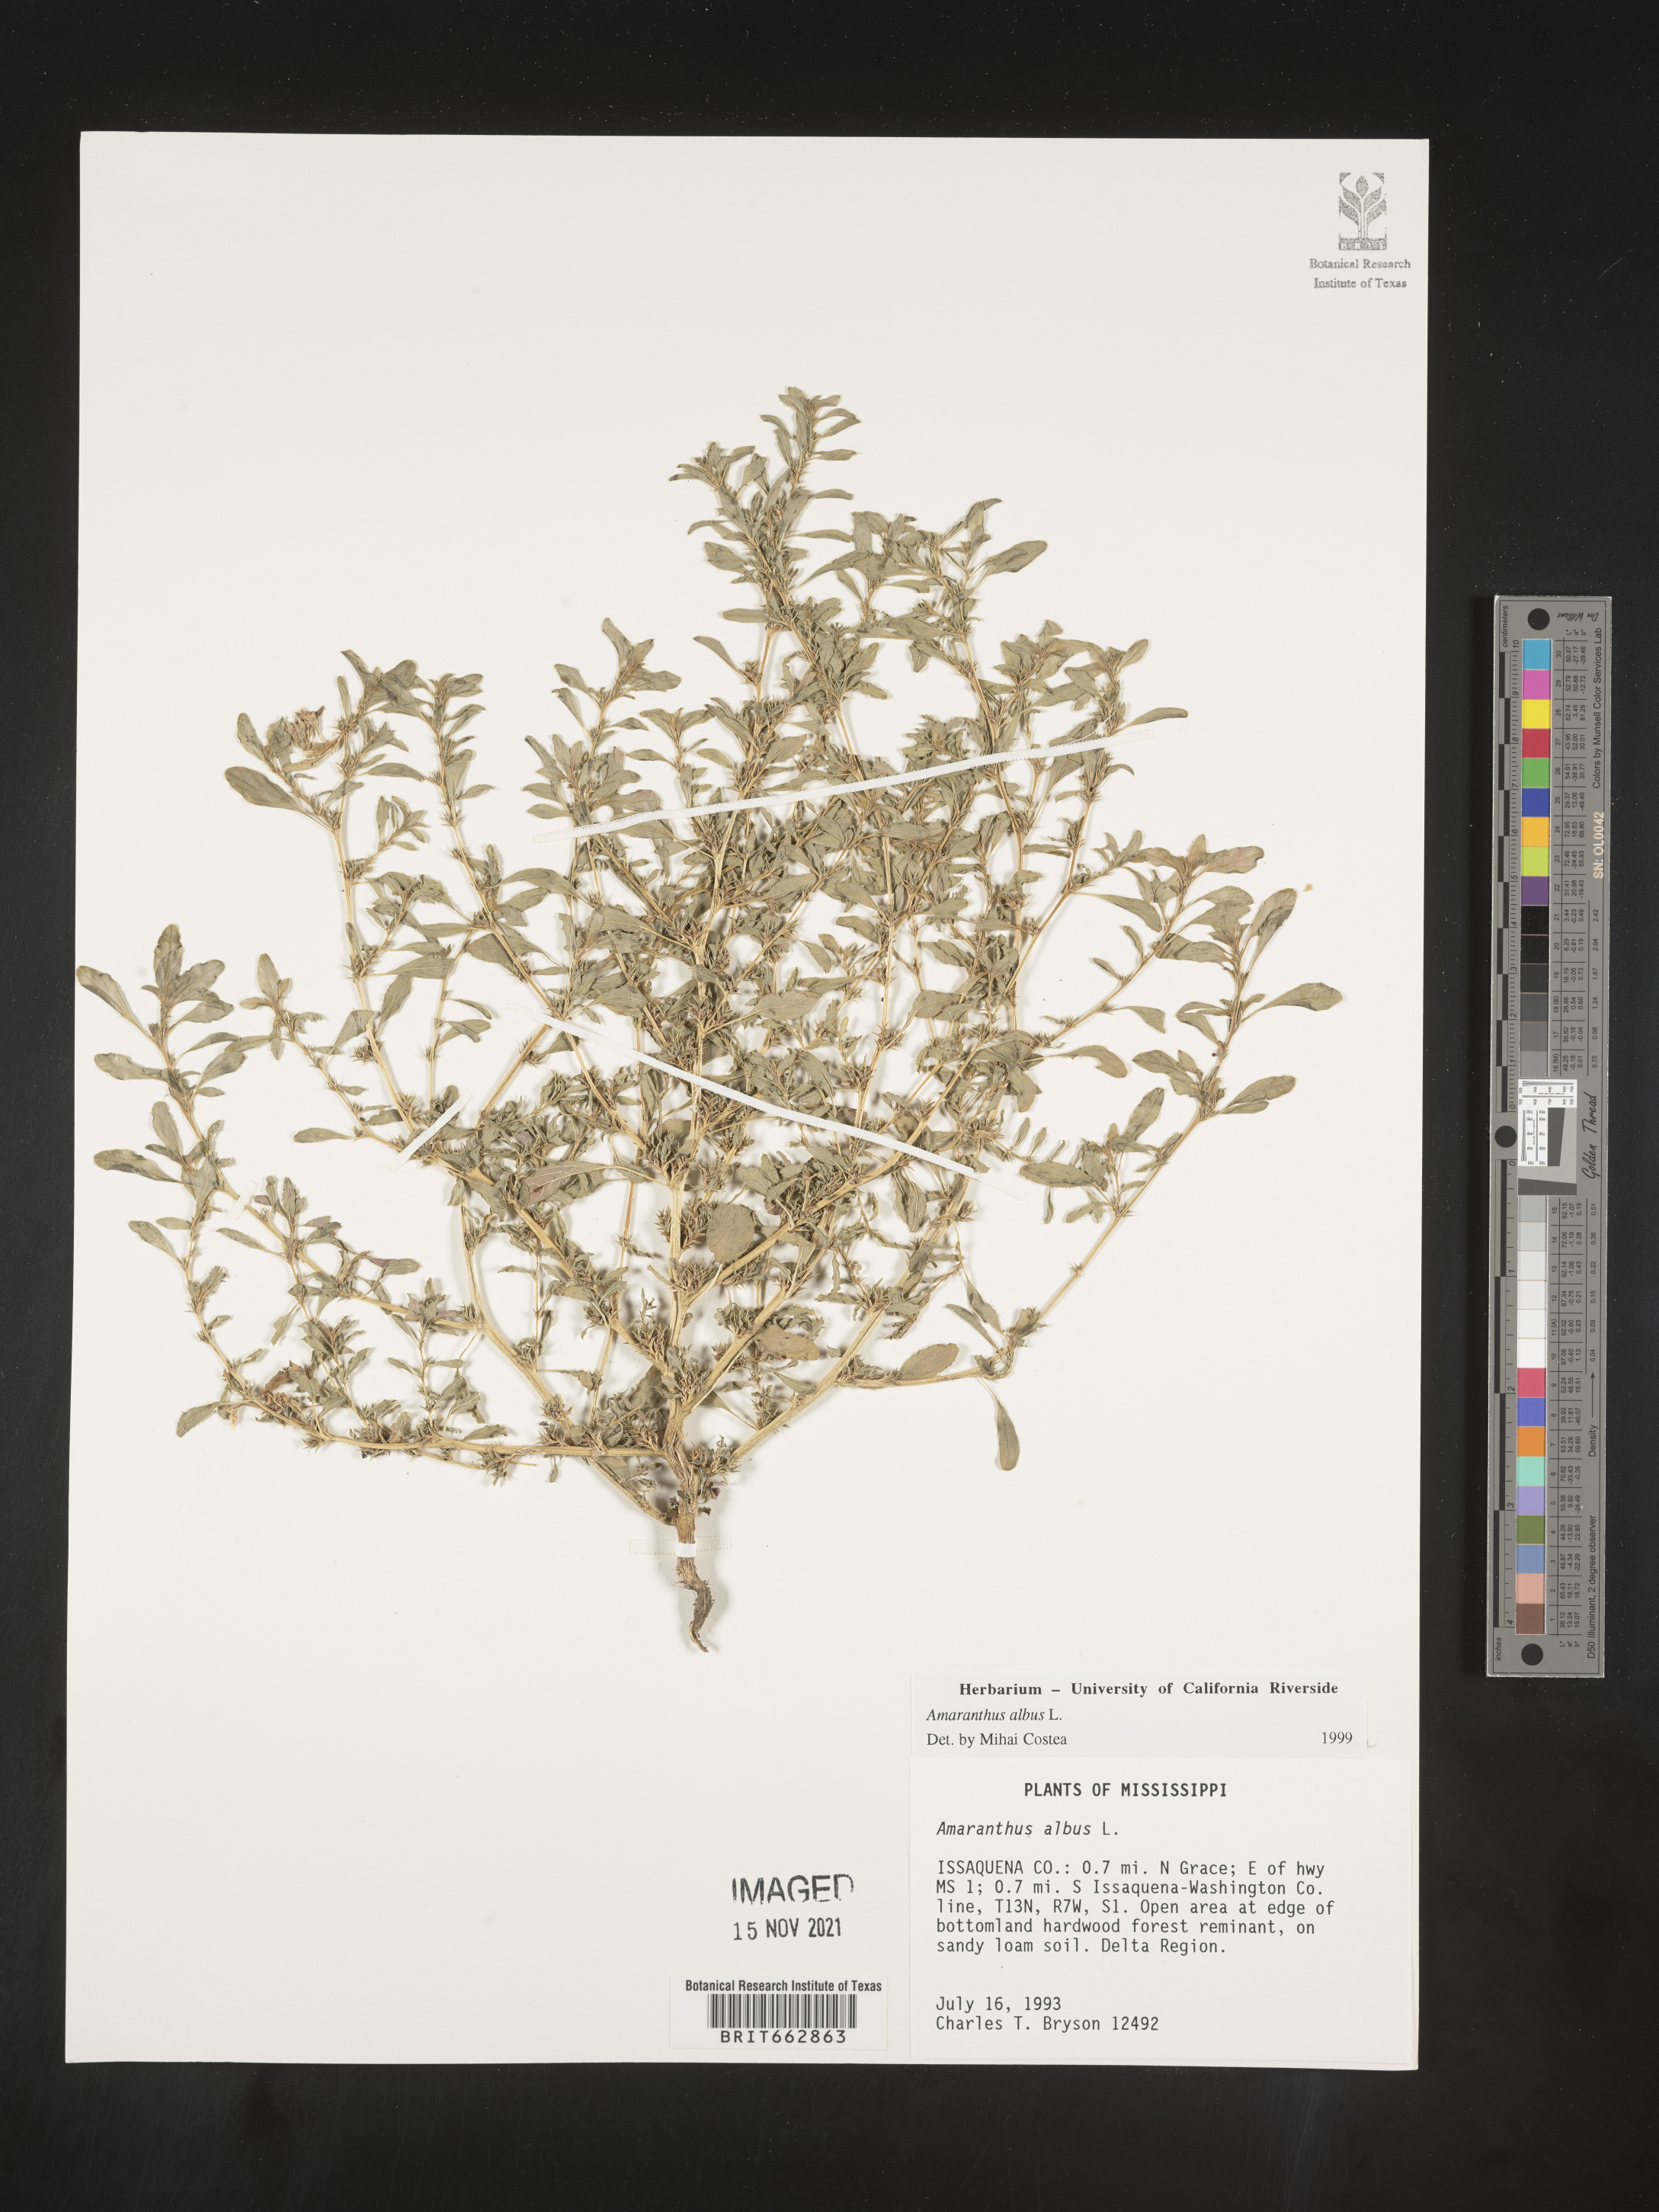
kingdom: Plantae
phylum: Tracheophyta
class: Magnoliopsida
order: Caryophyllales
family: Amaranthaceae
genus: Amaranthus
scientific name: Amaranthus albus
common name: White pigweed
